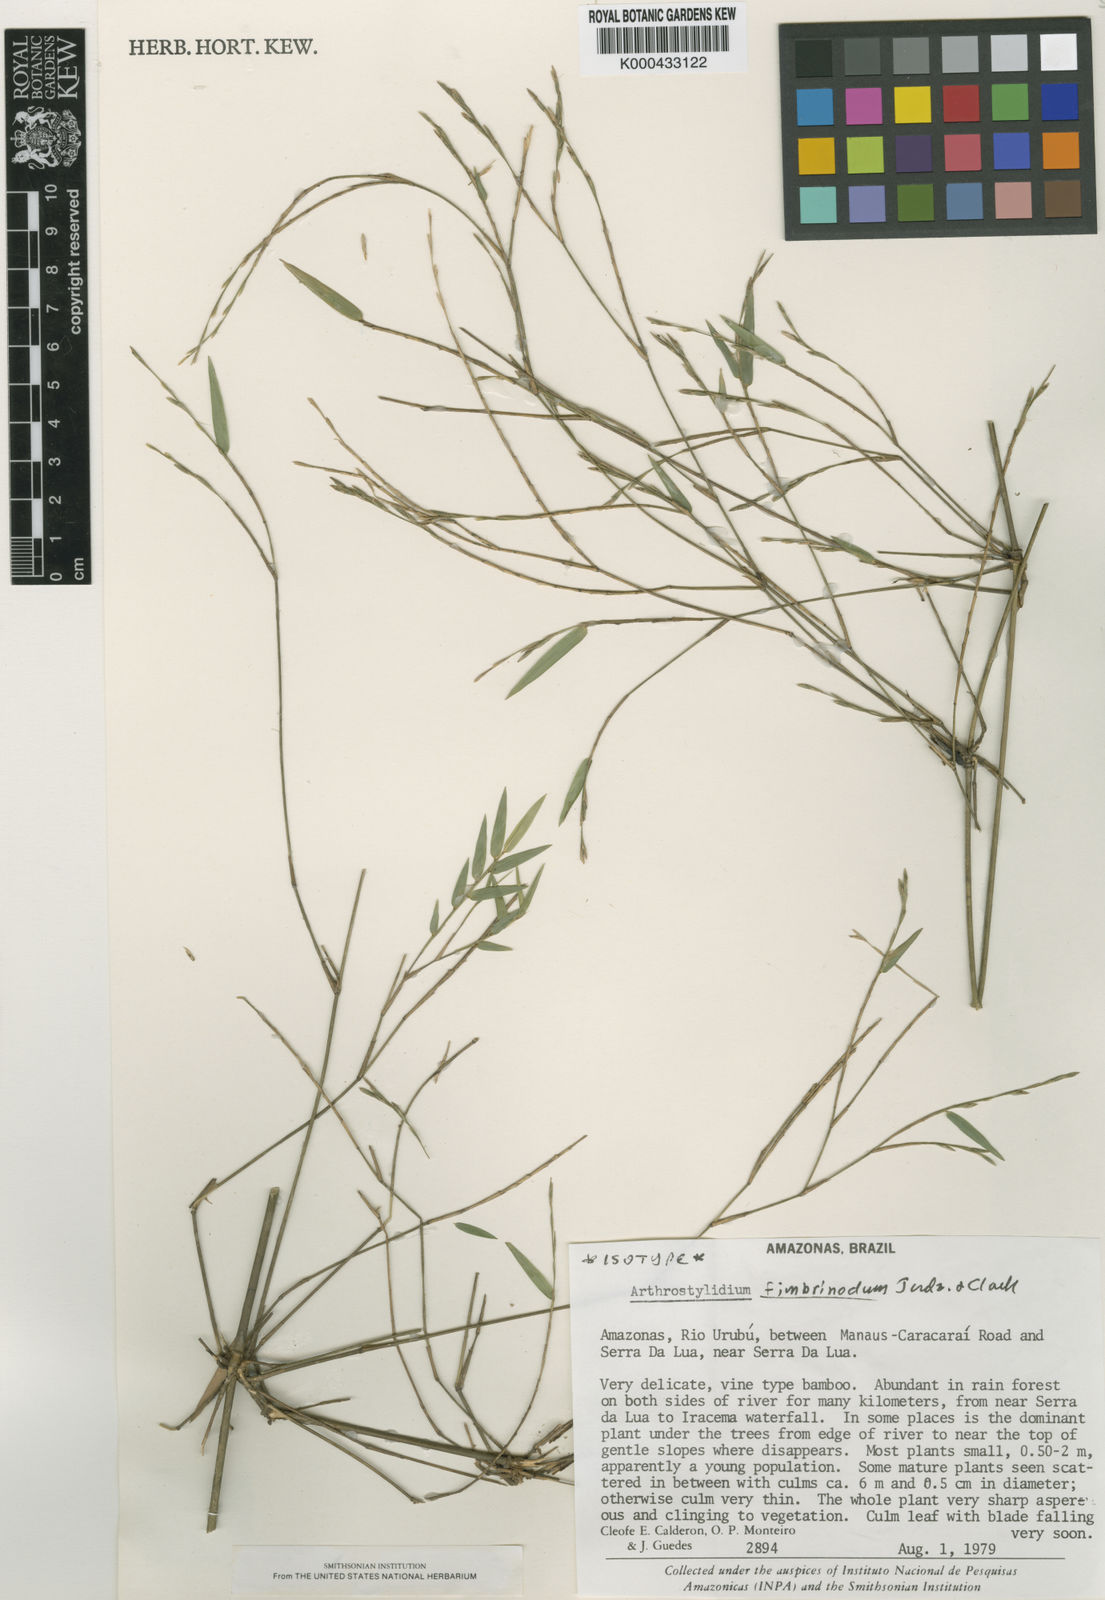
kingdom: Plantae
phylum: Tracheophyta
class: Liliopsida
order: Poales
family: Poaceae
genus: Arthrostylidium
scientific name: Arthrostylidium fimbrinodum
